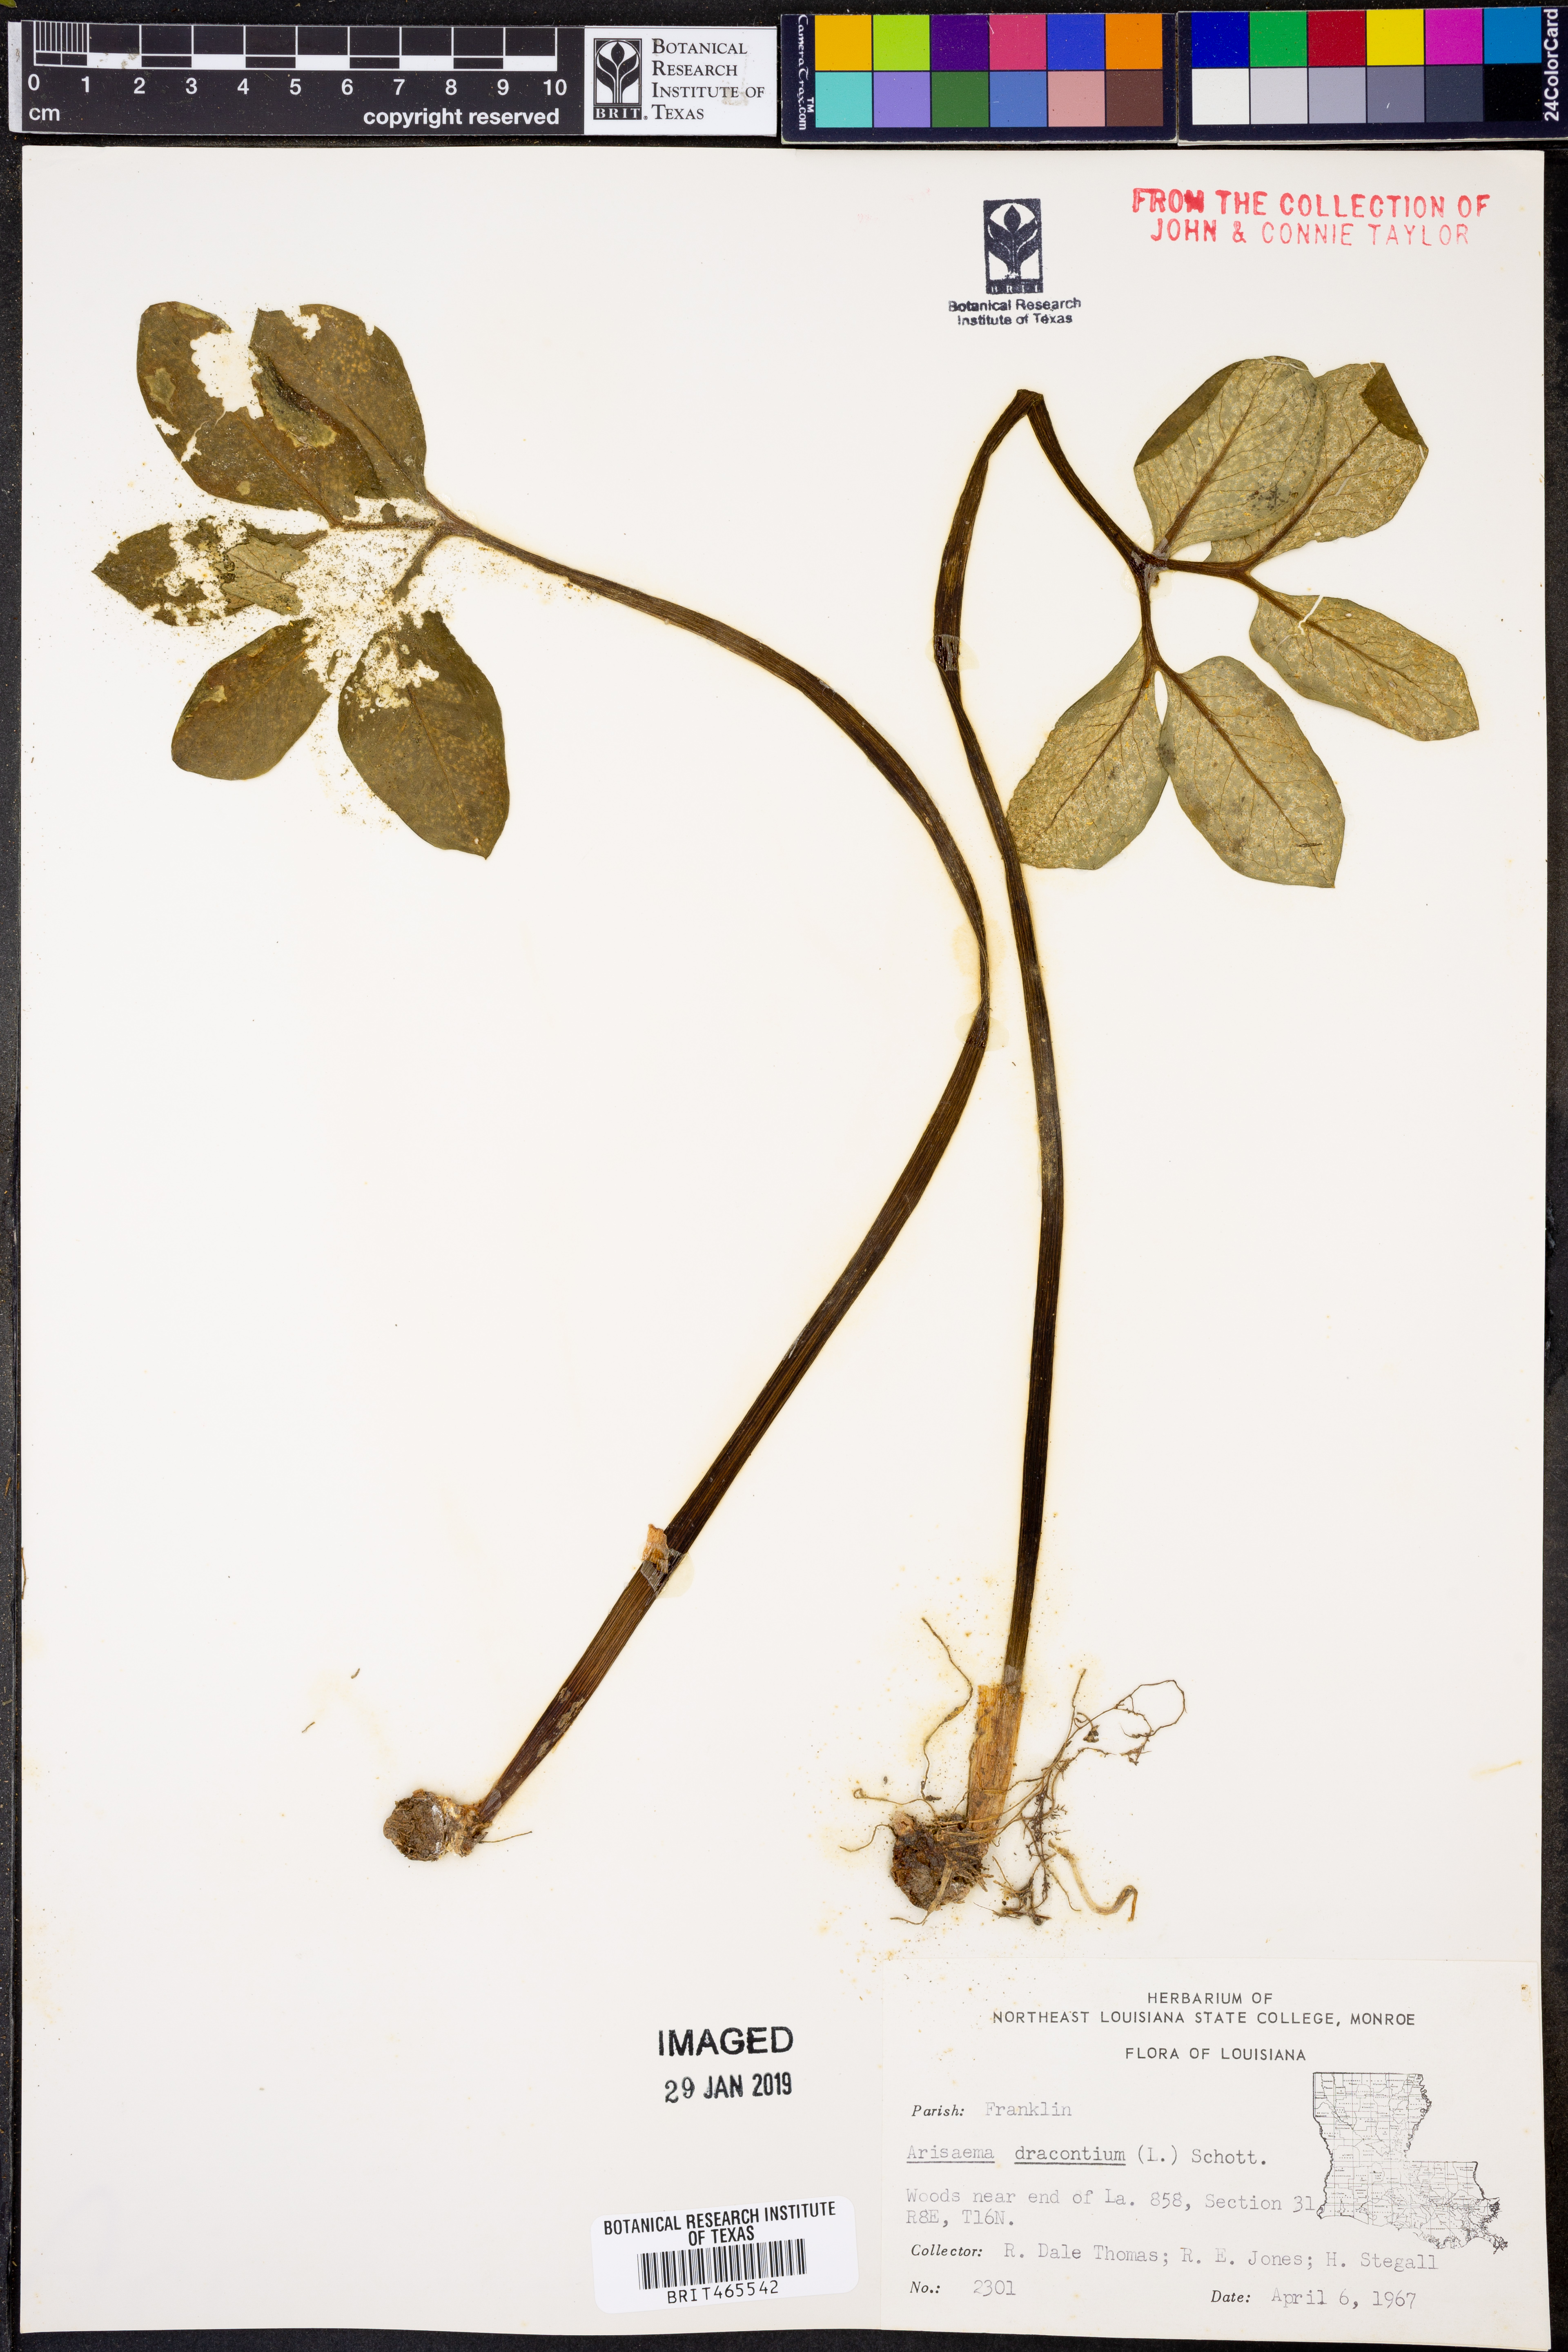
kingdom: Plantae
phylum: Tracheophyta
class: Liliopsida
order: Alismatales
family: Araceae
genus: Arisaema
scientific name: Arisaema dracontium
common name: Dragon-arum
